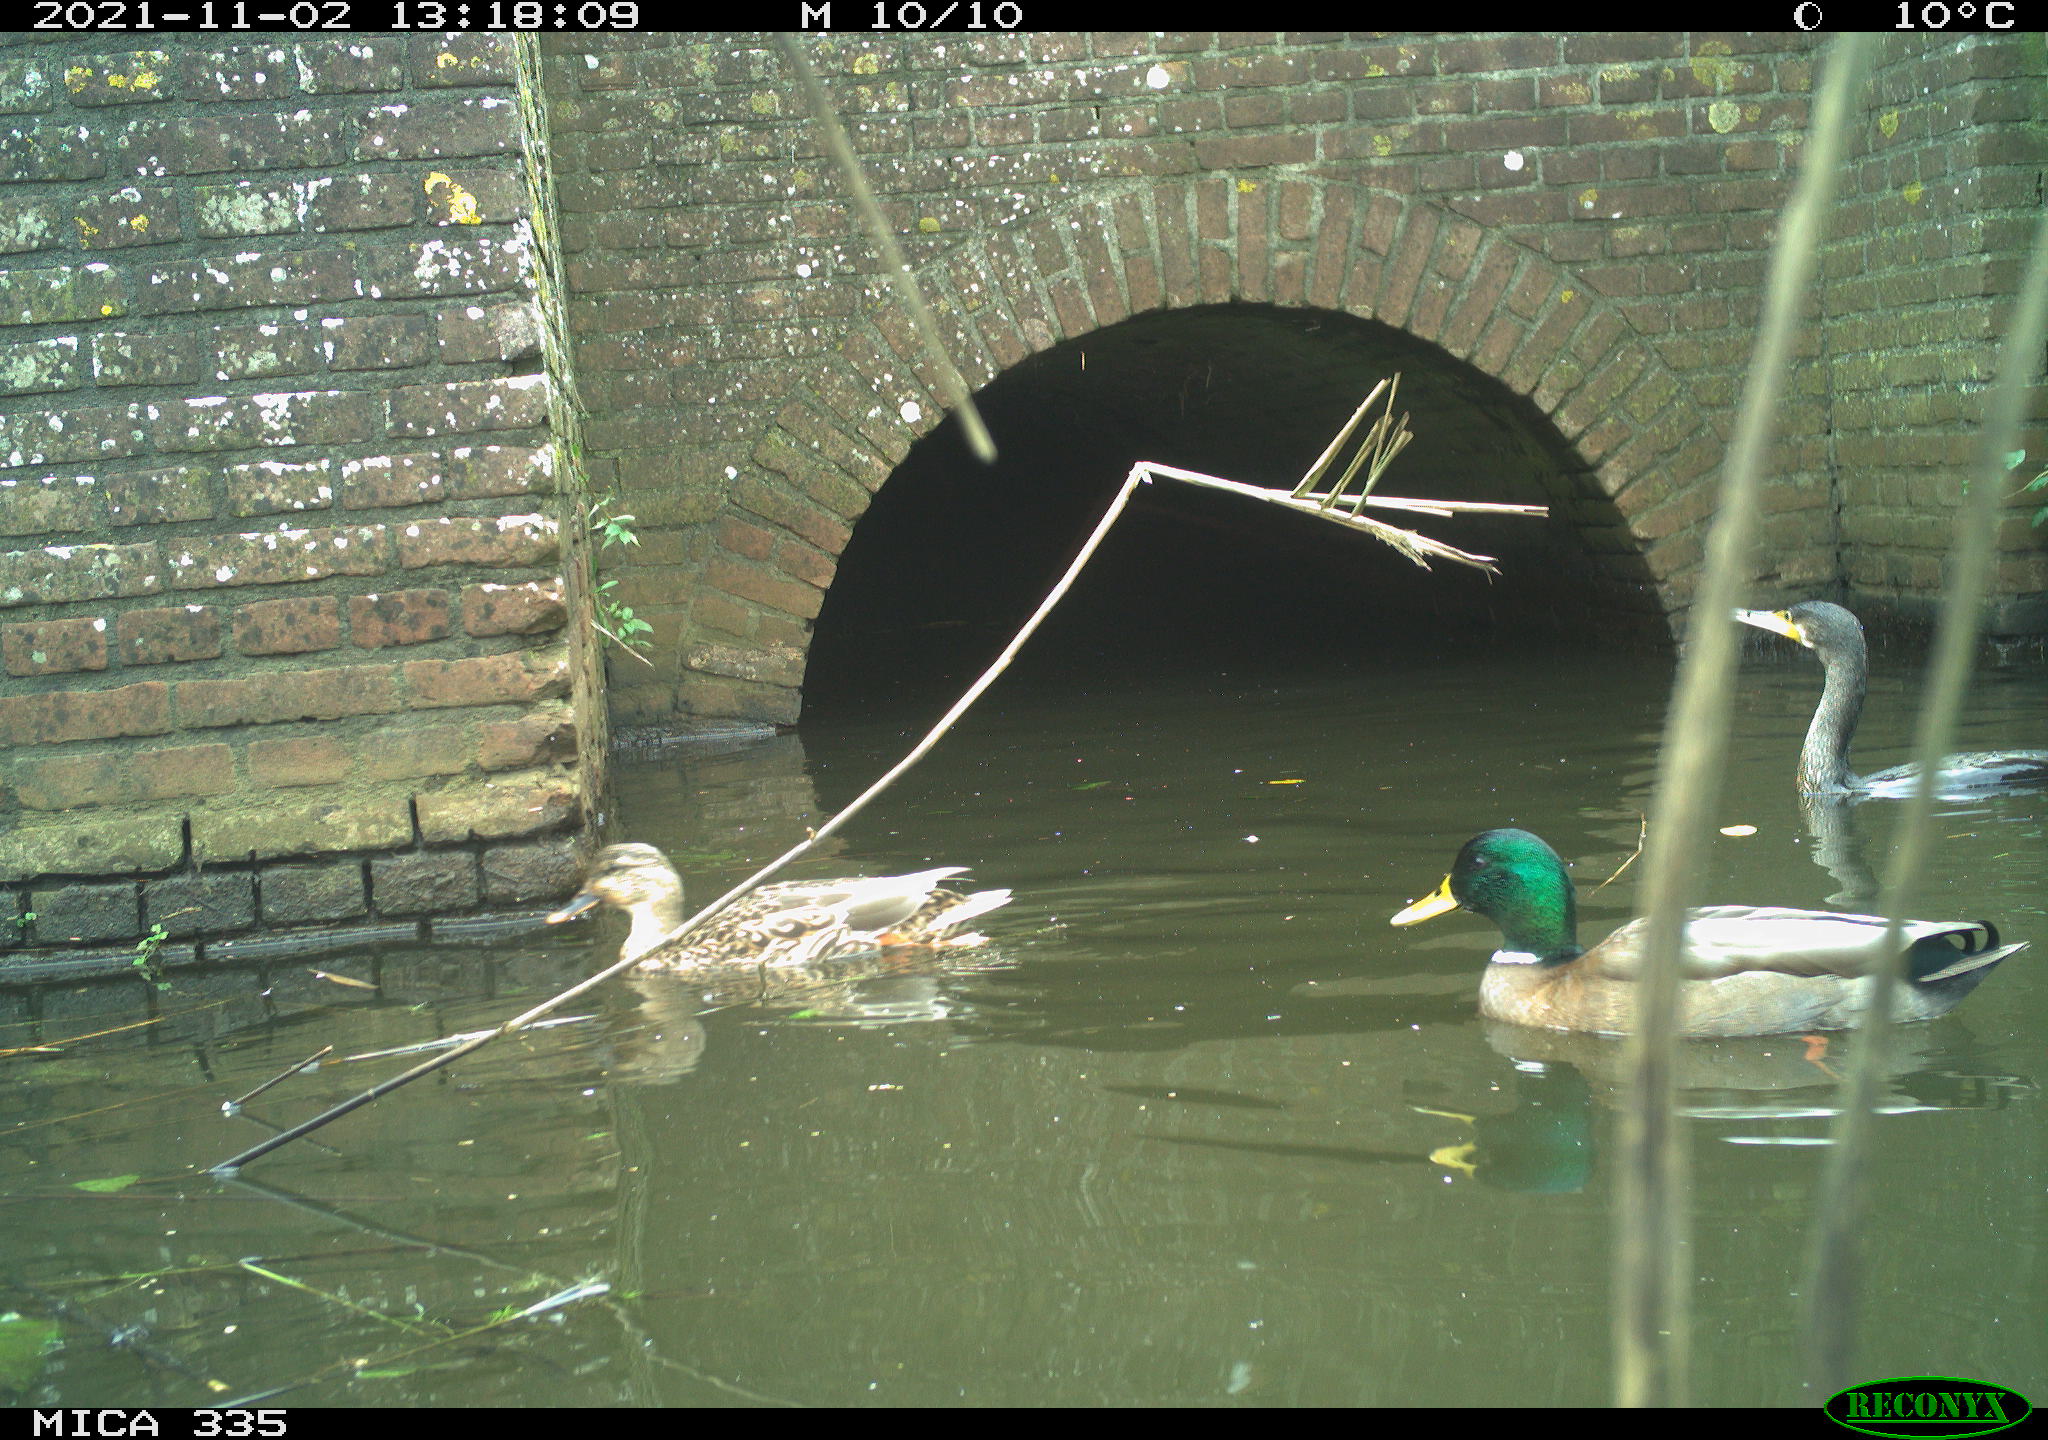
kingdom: Animalia
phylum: Chordata
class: Aves
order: Anseriformes
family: Anatidae
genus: Anas
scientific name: Anas platyrhynchos
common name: Mallard
